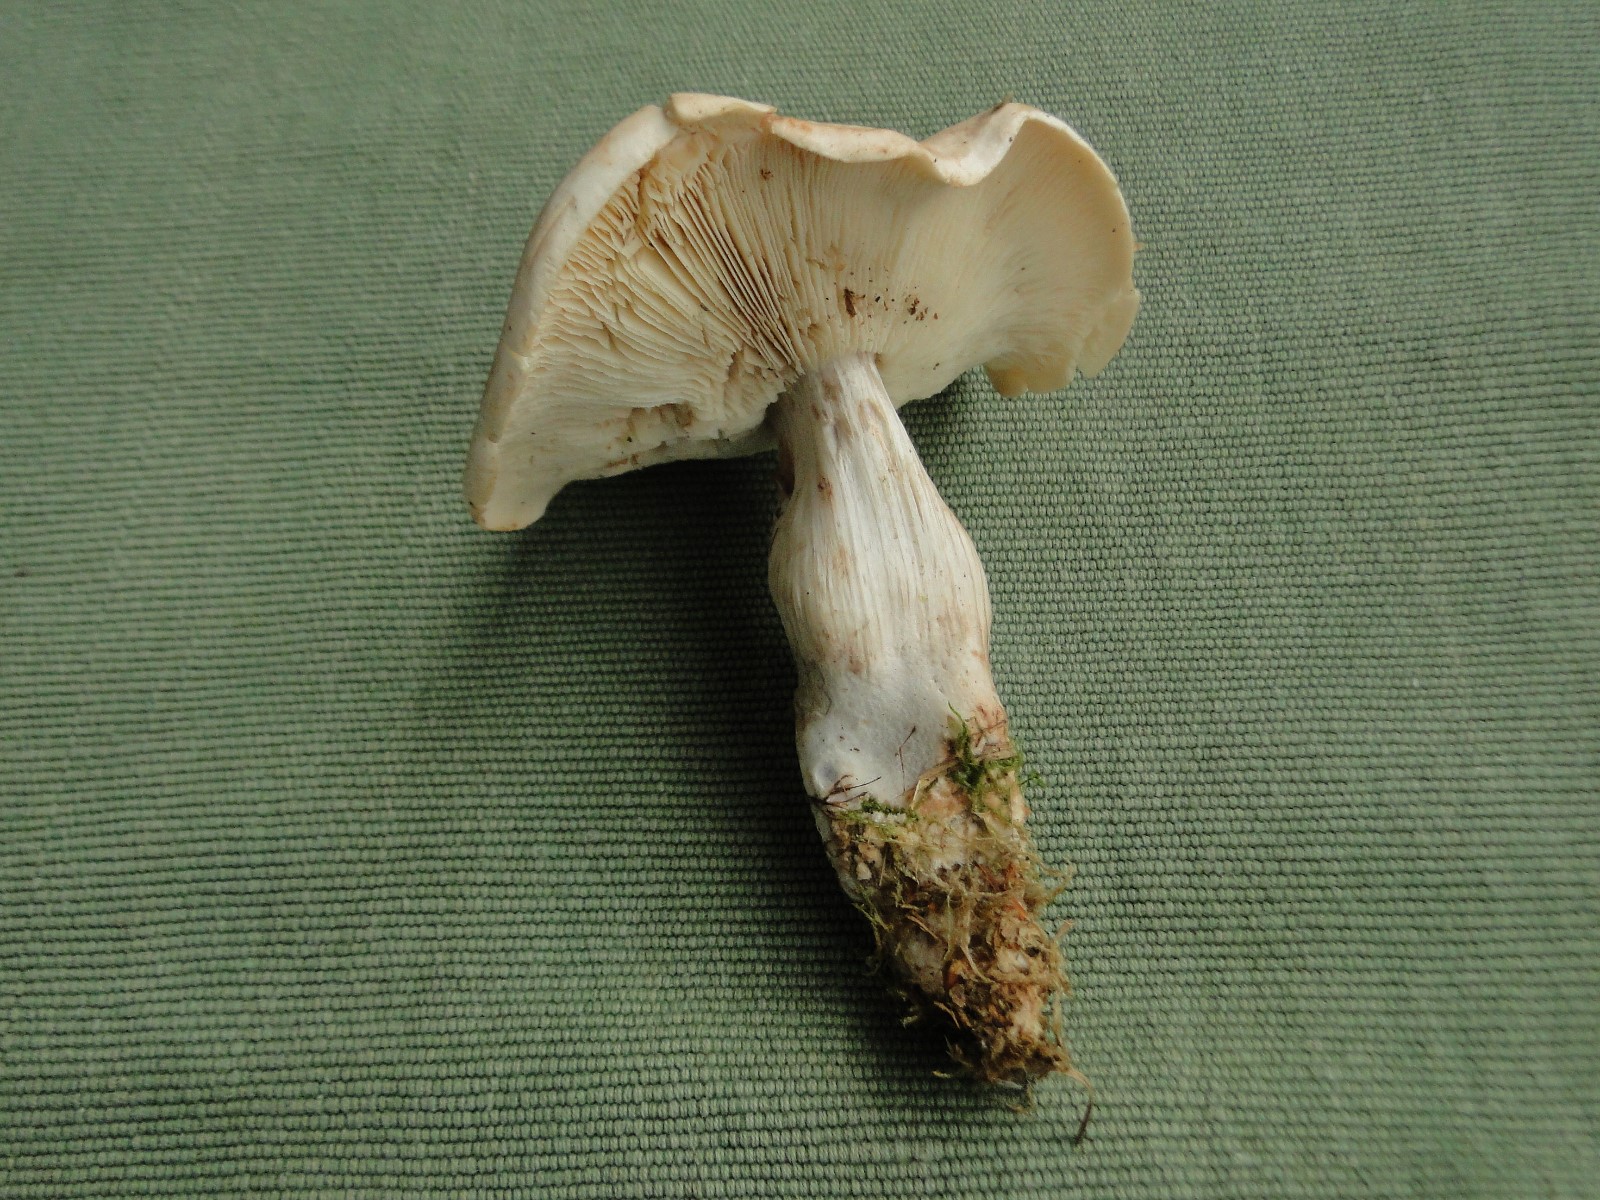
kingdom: Fungi
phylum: Basidiomycota
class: Agaricomycetes
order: Agaricales
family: Omphalotaceae
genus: Rhodocollybia
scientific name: Rhodocollybia
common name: fladhat
